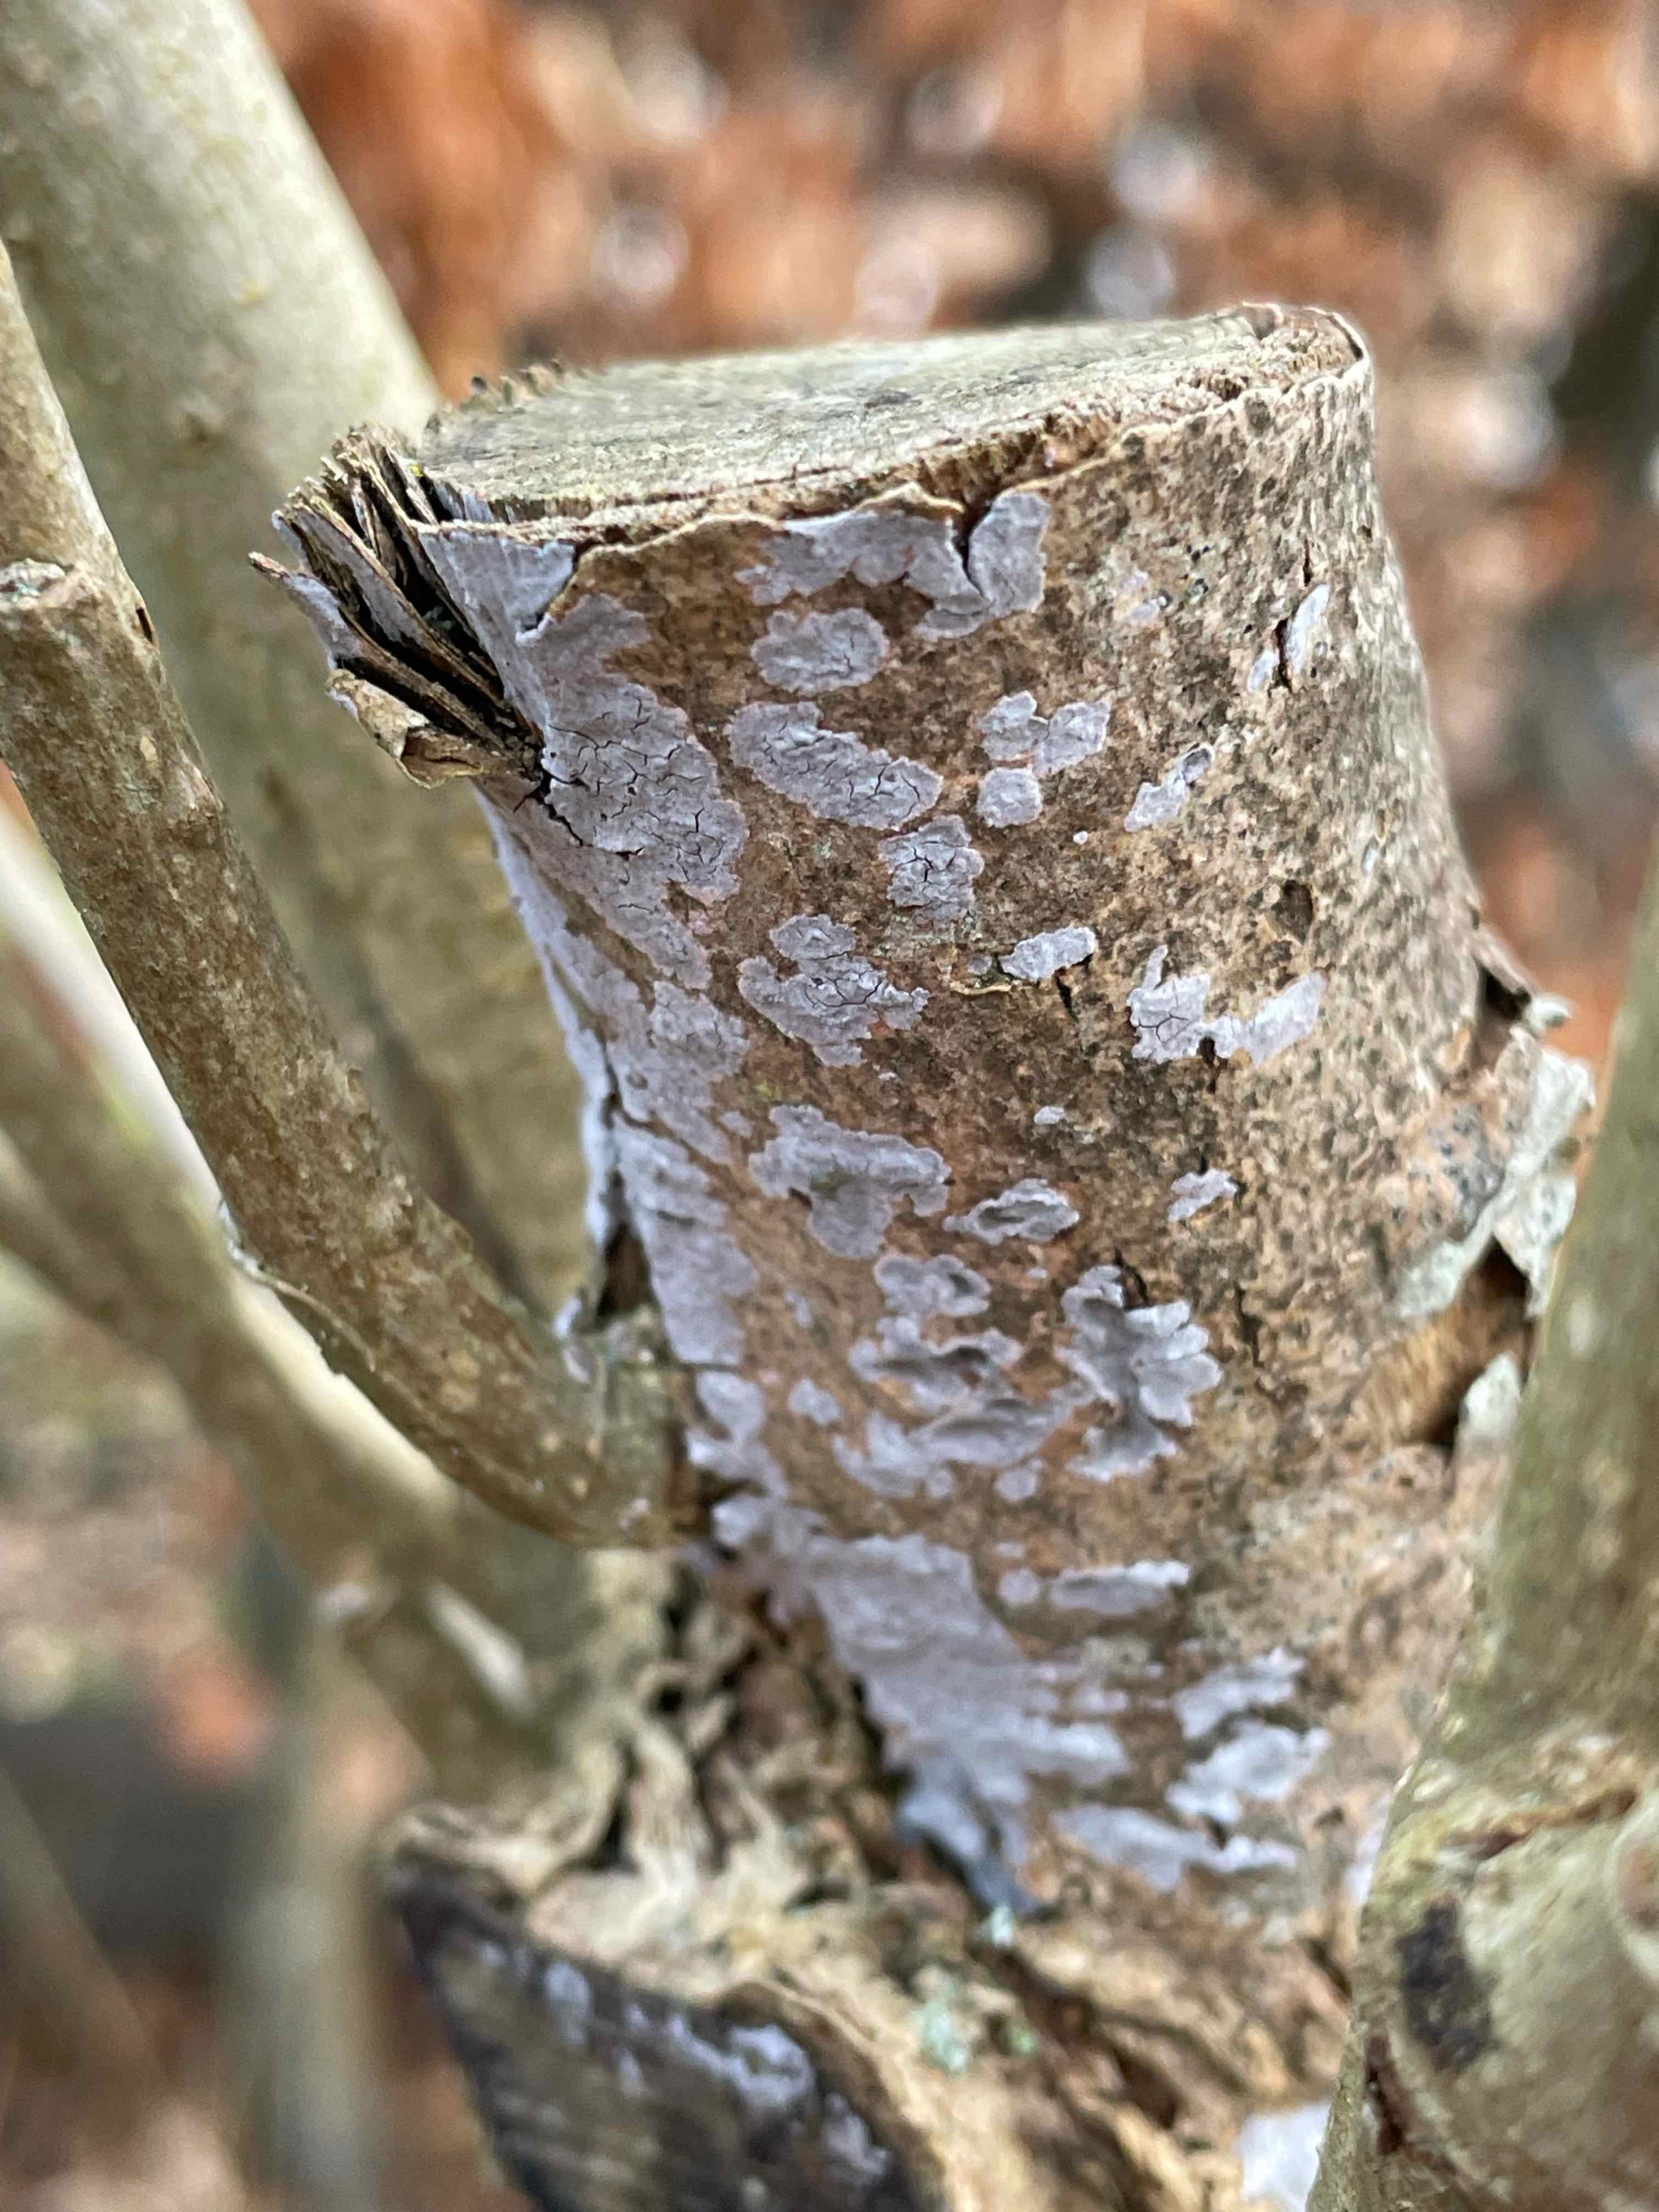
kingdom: Fungi
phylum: Basidiomycota
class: Agaricomycetes
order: Russulales
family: Peniophoraceae
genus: Peniophora
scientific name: Peniophora lycii
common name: grynet voksskind
